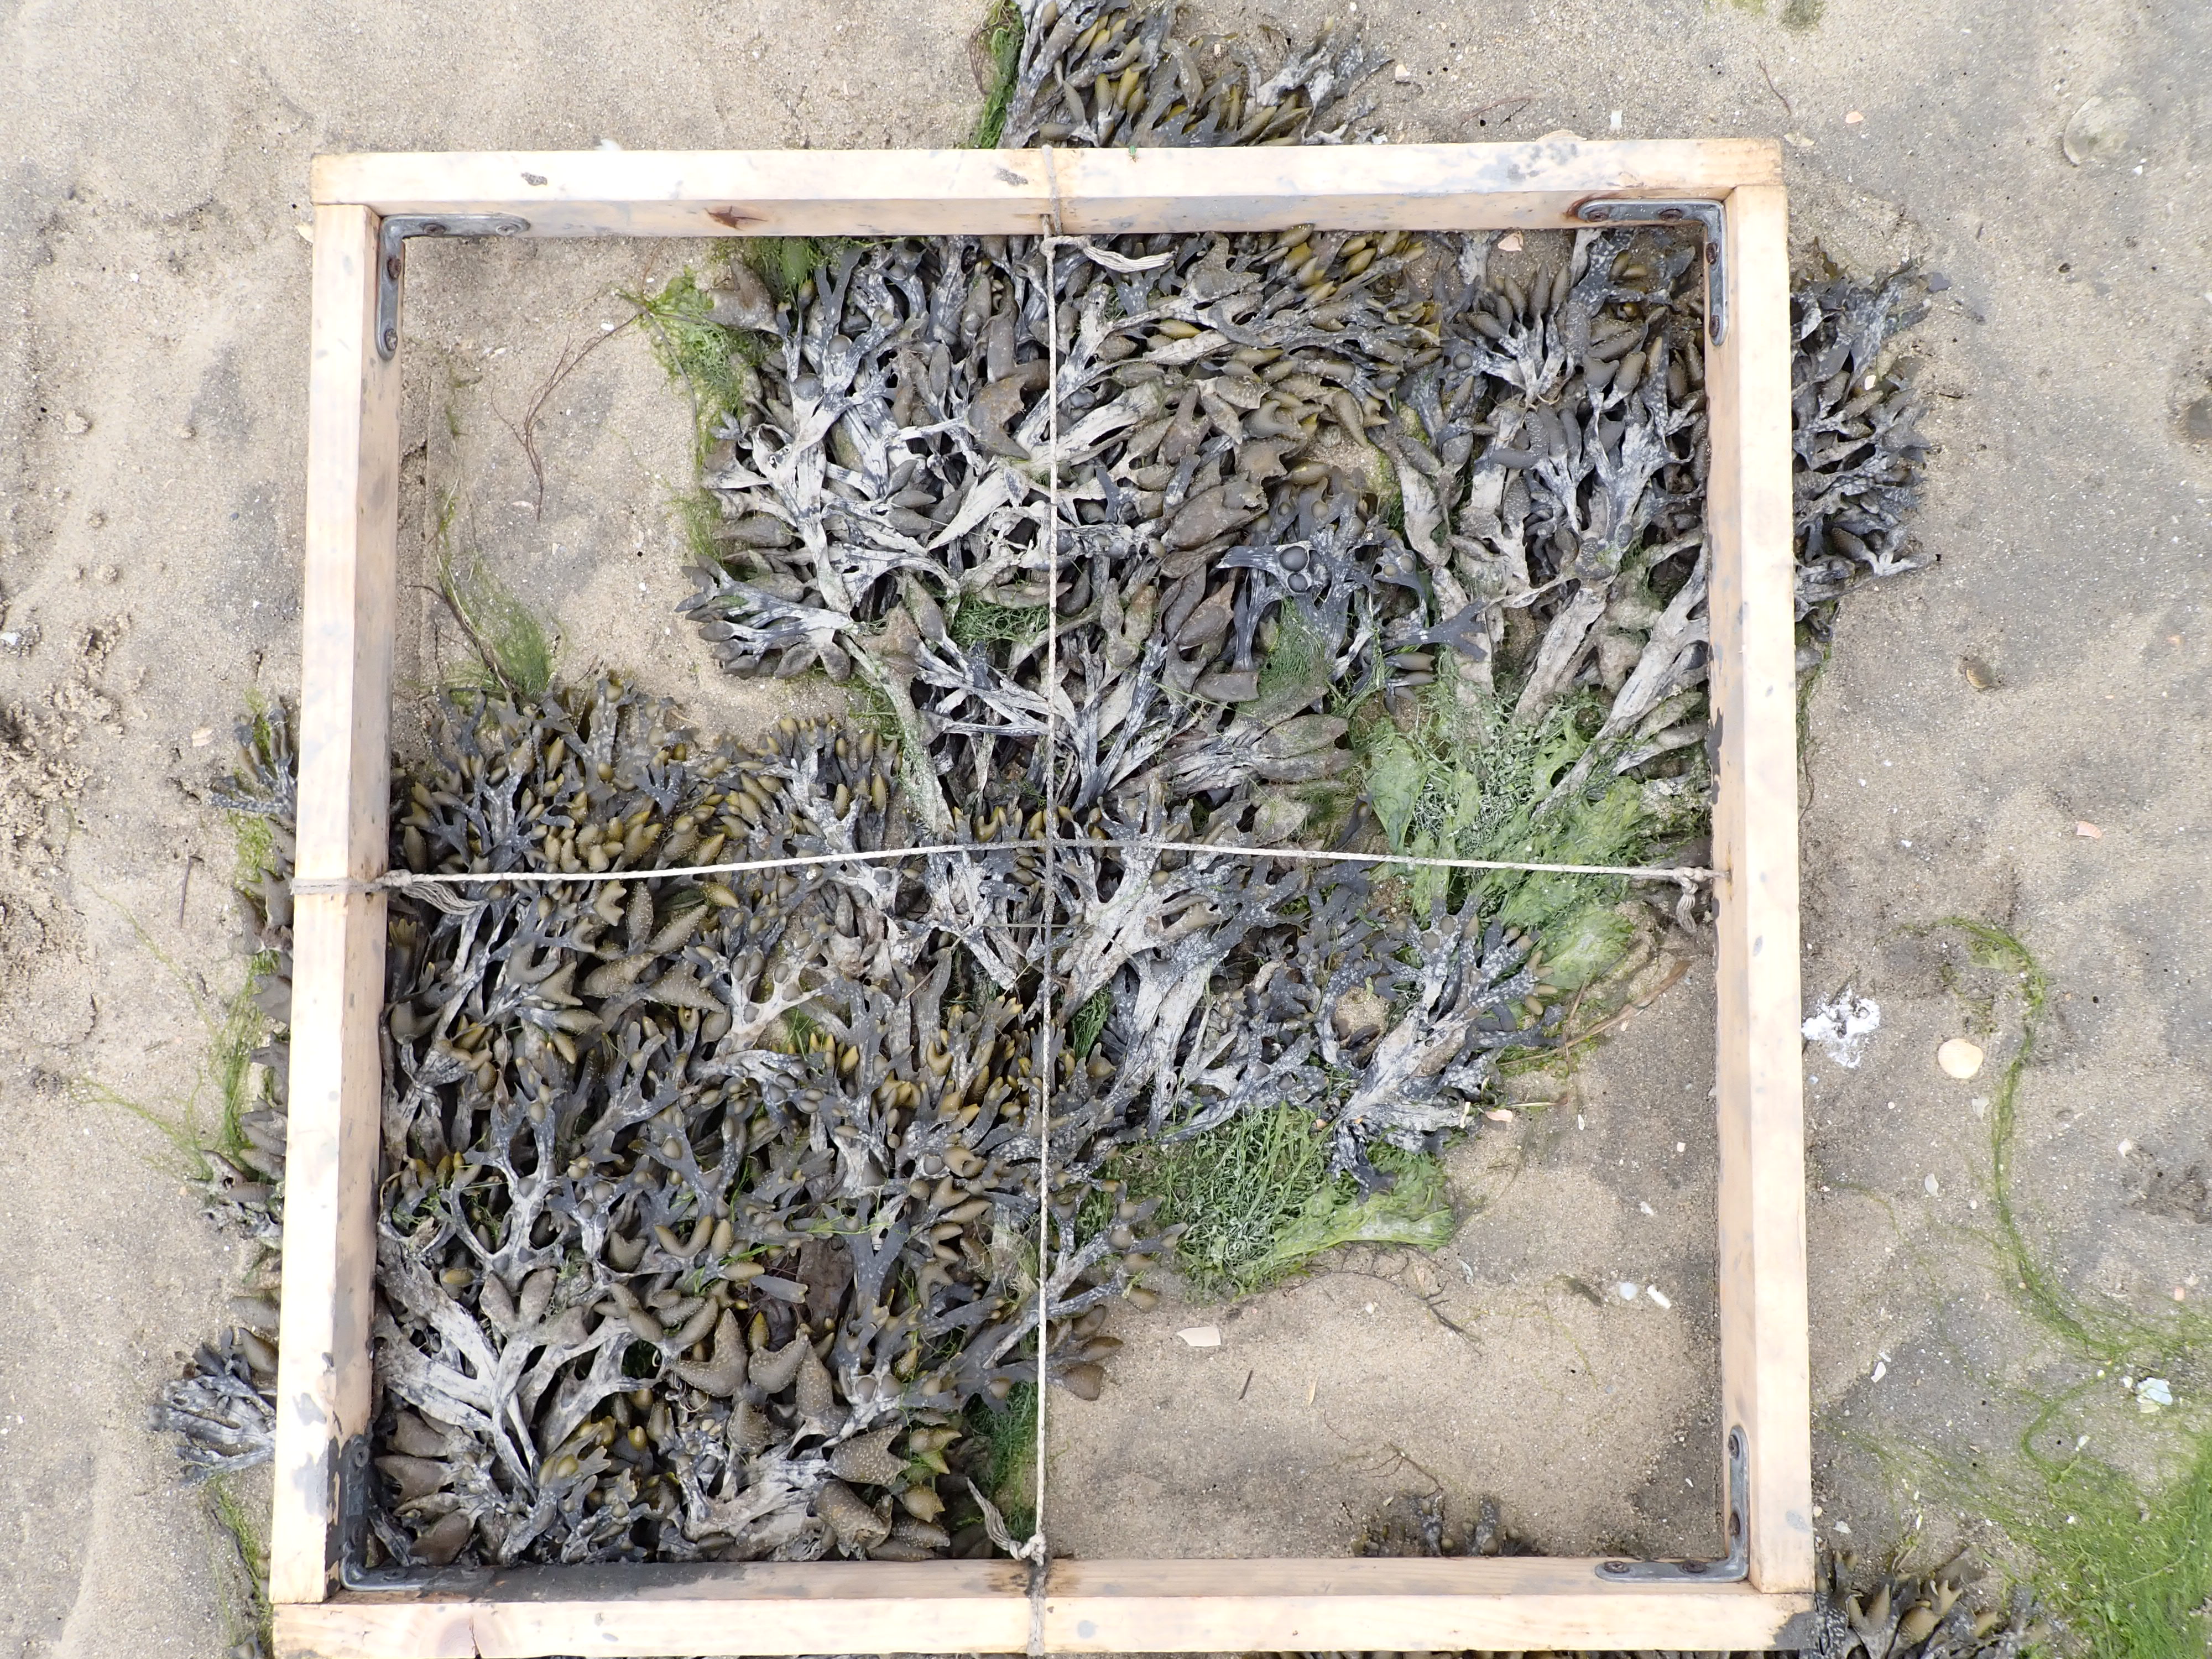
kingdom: Plantae
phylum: Chlorophyta
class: Ulvophyceae
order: Ulvales
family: Ulvaceae
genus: Ulva
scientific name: Ulva
